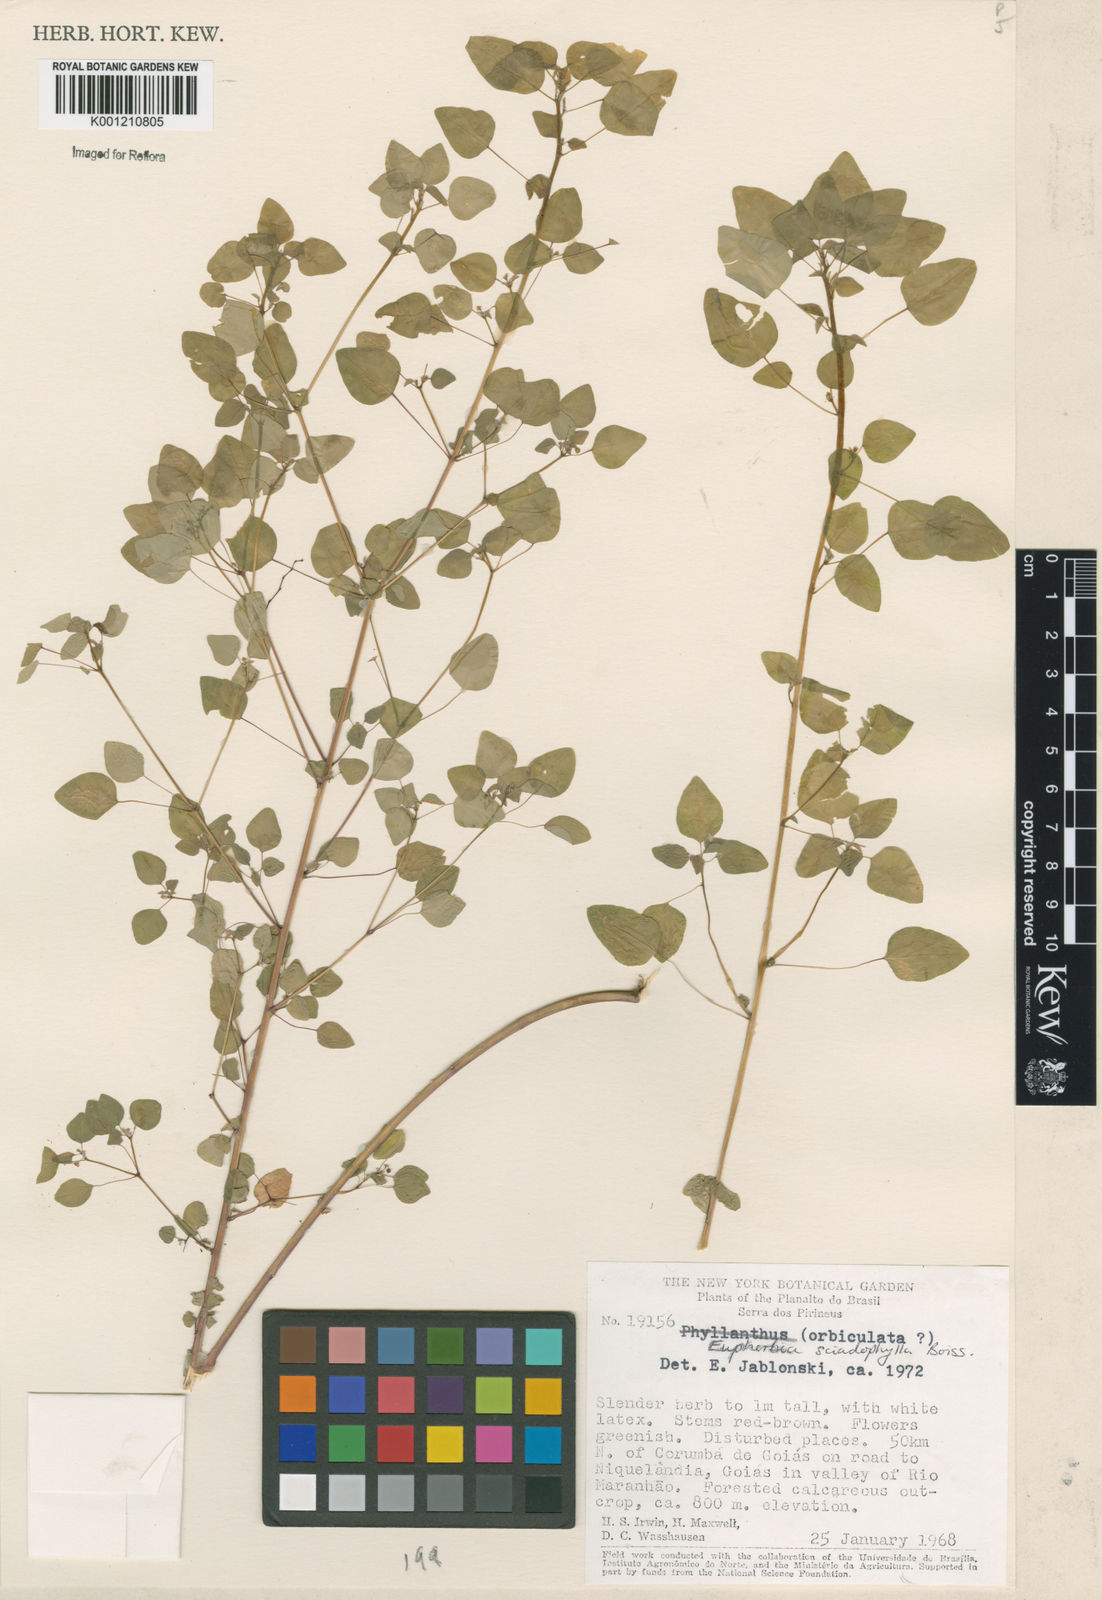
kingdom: Plantae
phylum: Tracheophyta
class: Magnoliopsida
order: Malpighiales
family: Euphorbiaceae
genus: Euphorbia
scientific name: Euphorbia sciadophila
